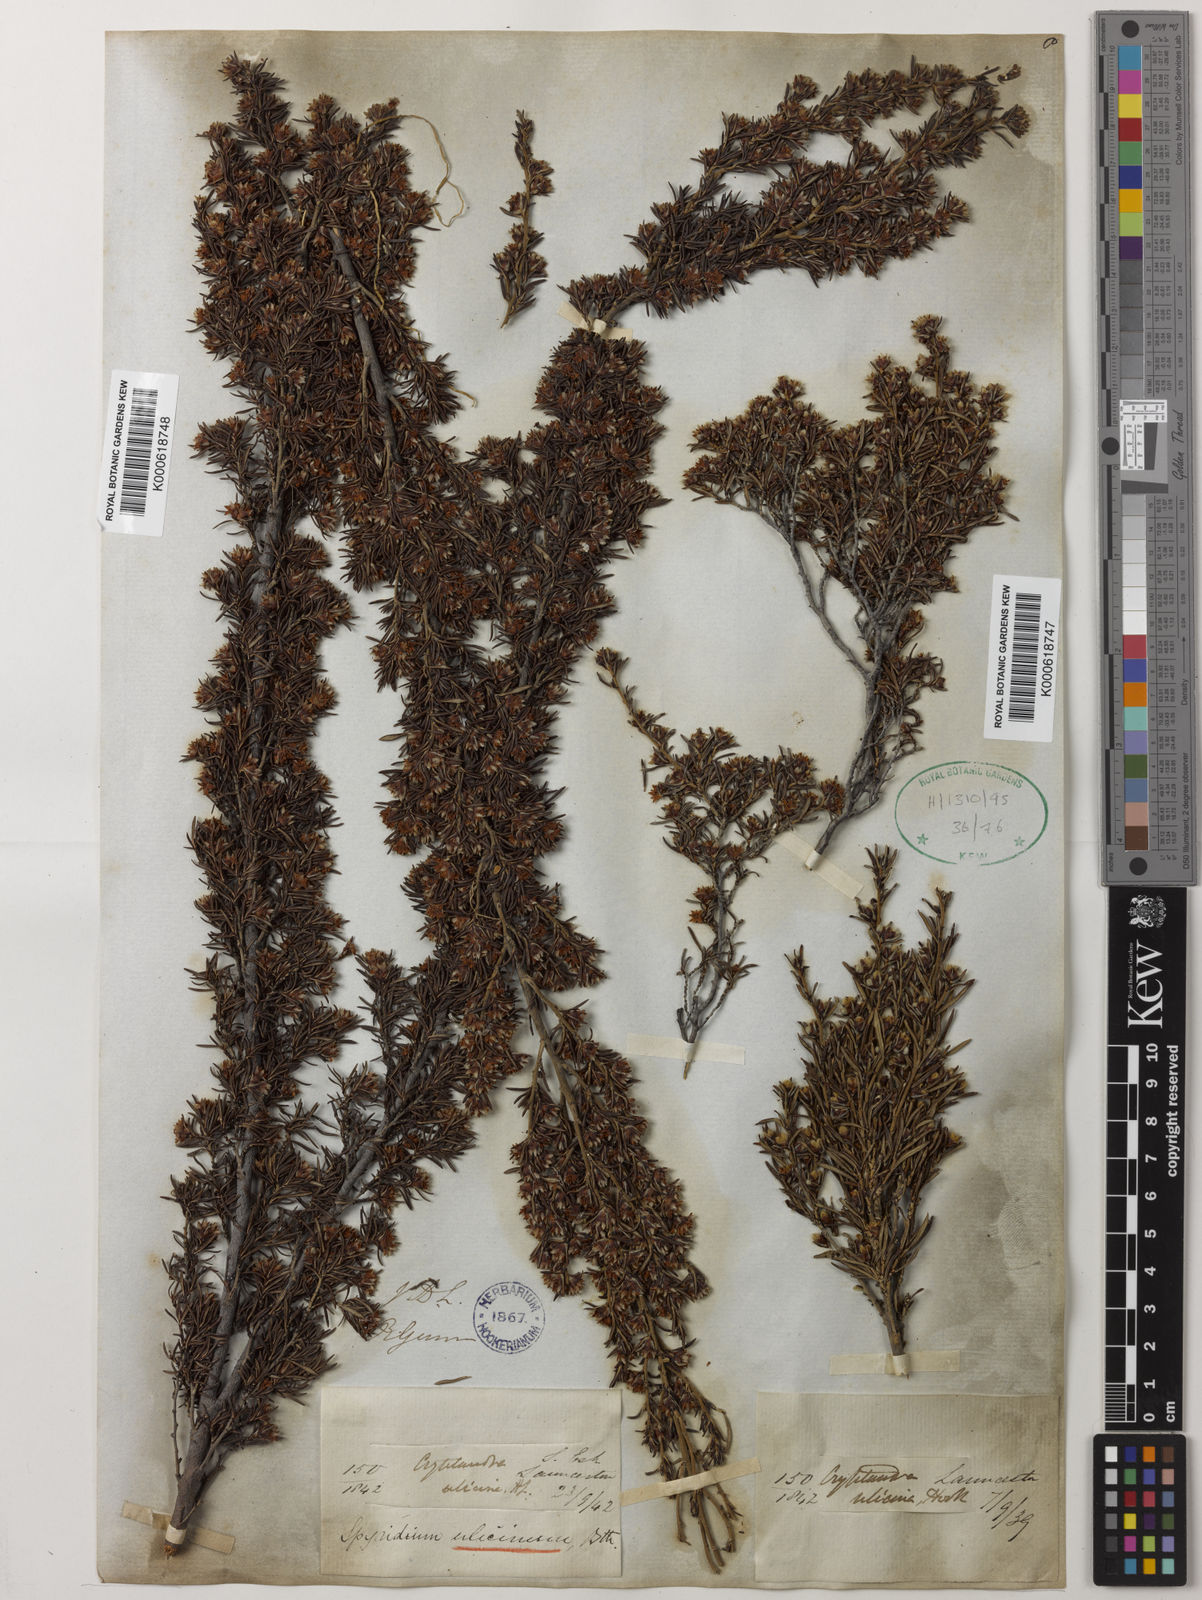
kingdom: Plantae
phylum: Tracheophyta
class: Magnoliopsida
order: Rosales
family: Rhamnaceae
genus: Spyridium
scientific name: Spyridium ulicinum
